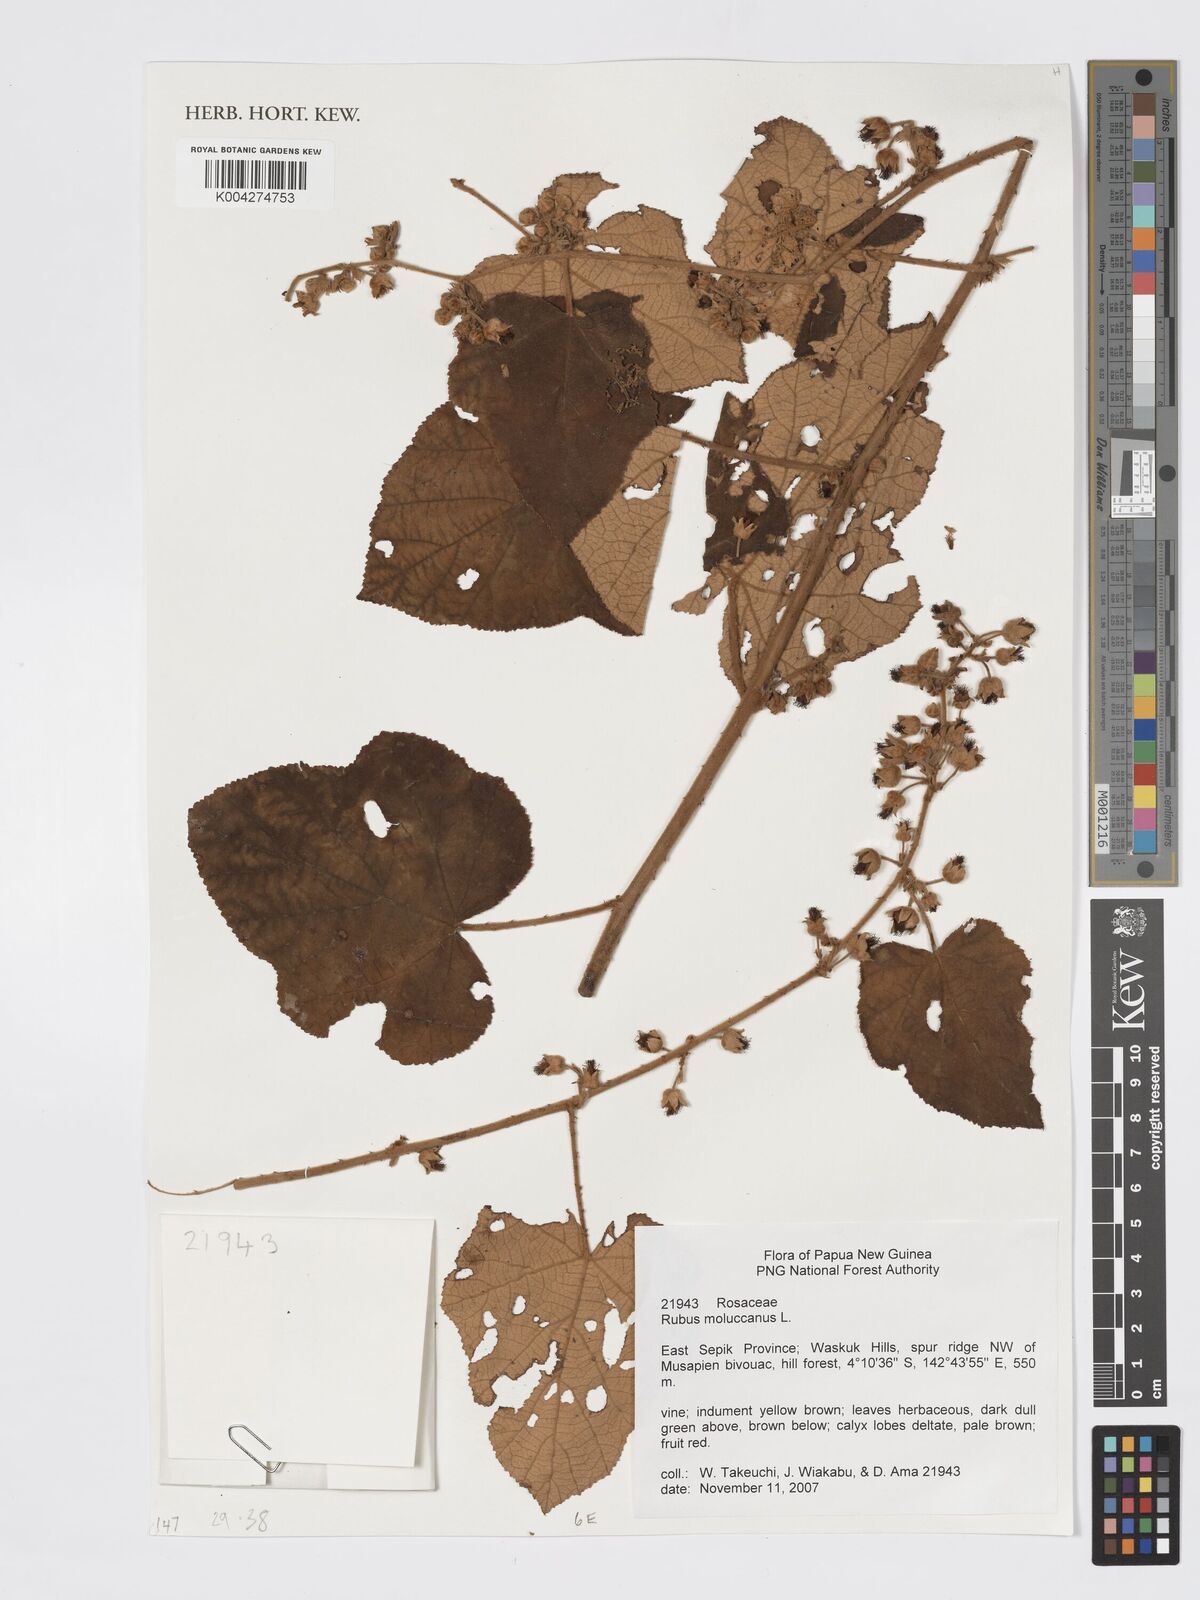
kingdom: Plantae
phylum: Tracheophyta
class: Magnoliopsida
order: Rosales
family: Rosaceae
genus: Rubus
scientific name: Rubus moluccanus
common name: Wild raspberry
